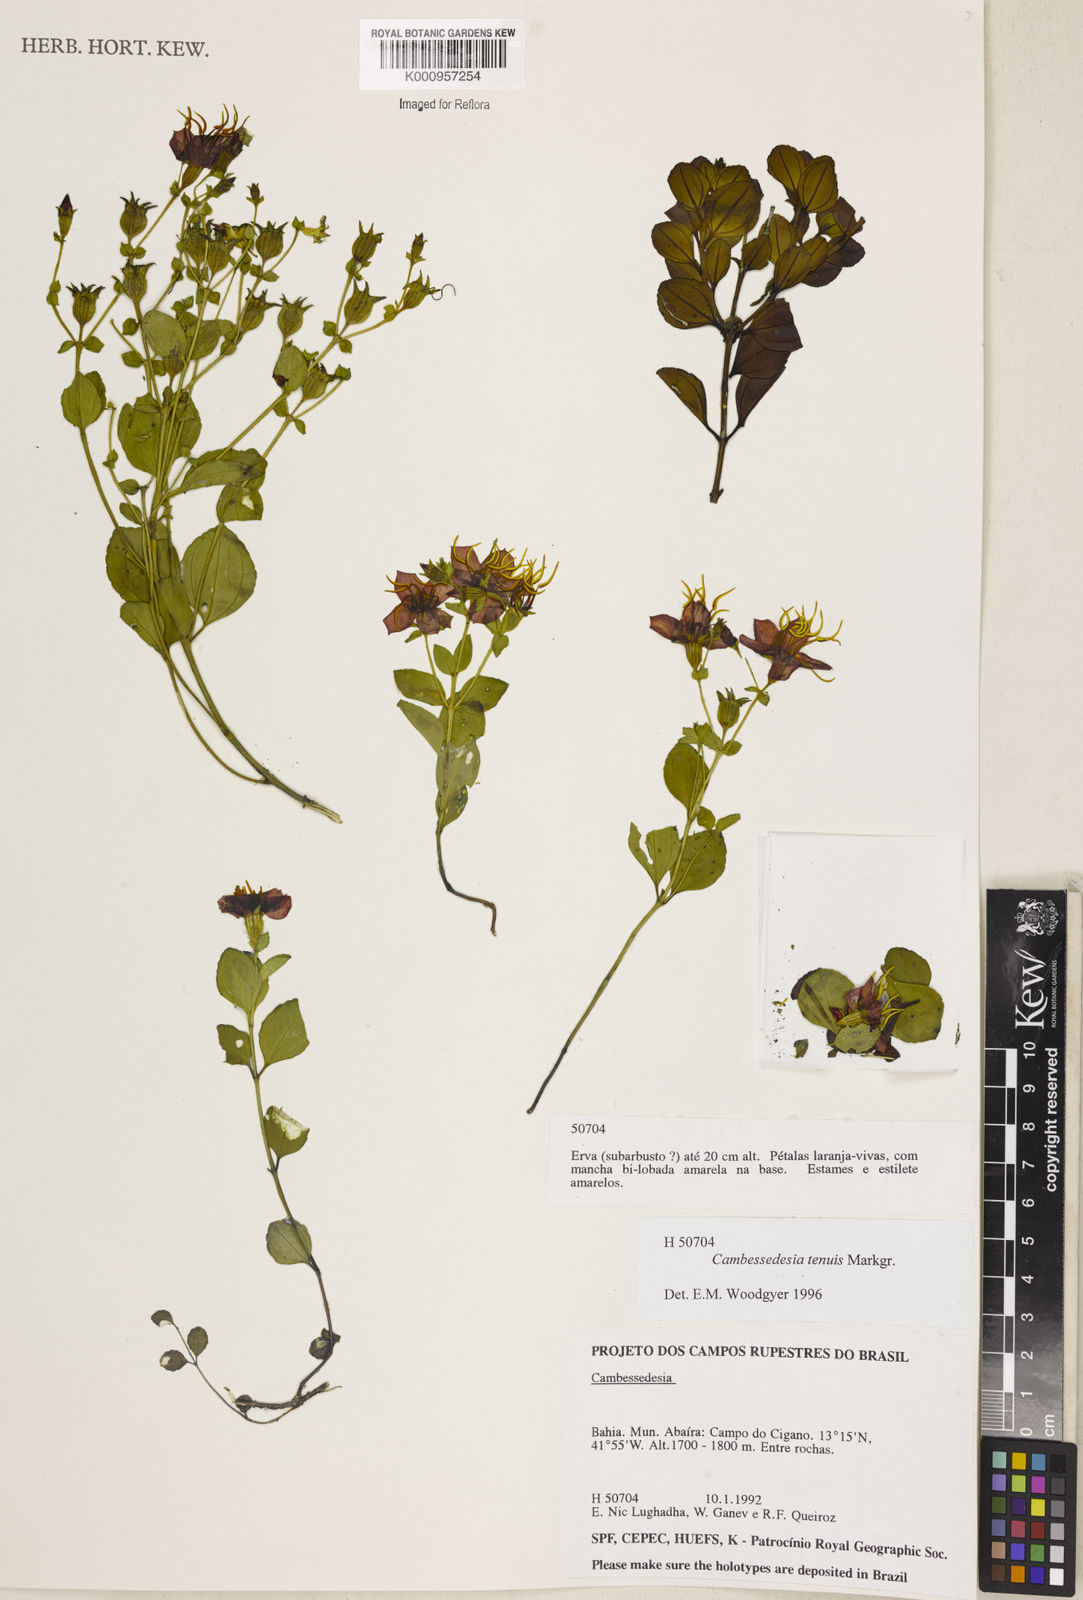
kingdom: Plantae
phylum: Tracheophyta
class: Magnoliopsida
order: Myrtales
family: Melastomataceae
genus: Cambessedesia
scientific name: Cambessedesia tenuis
